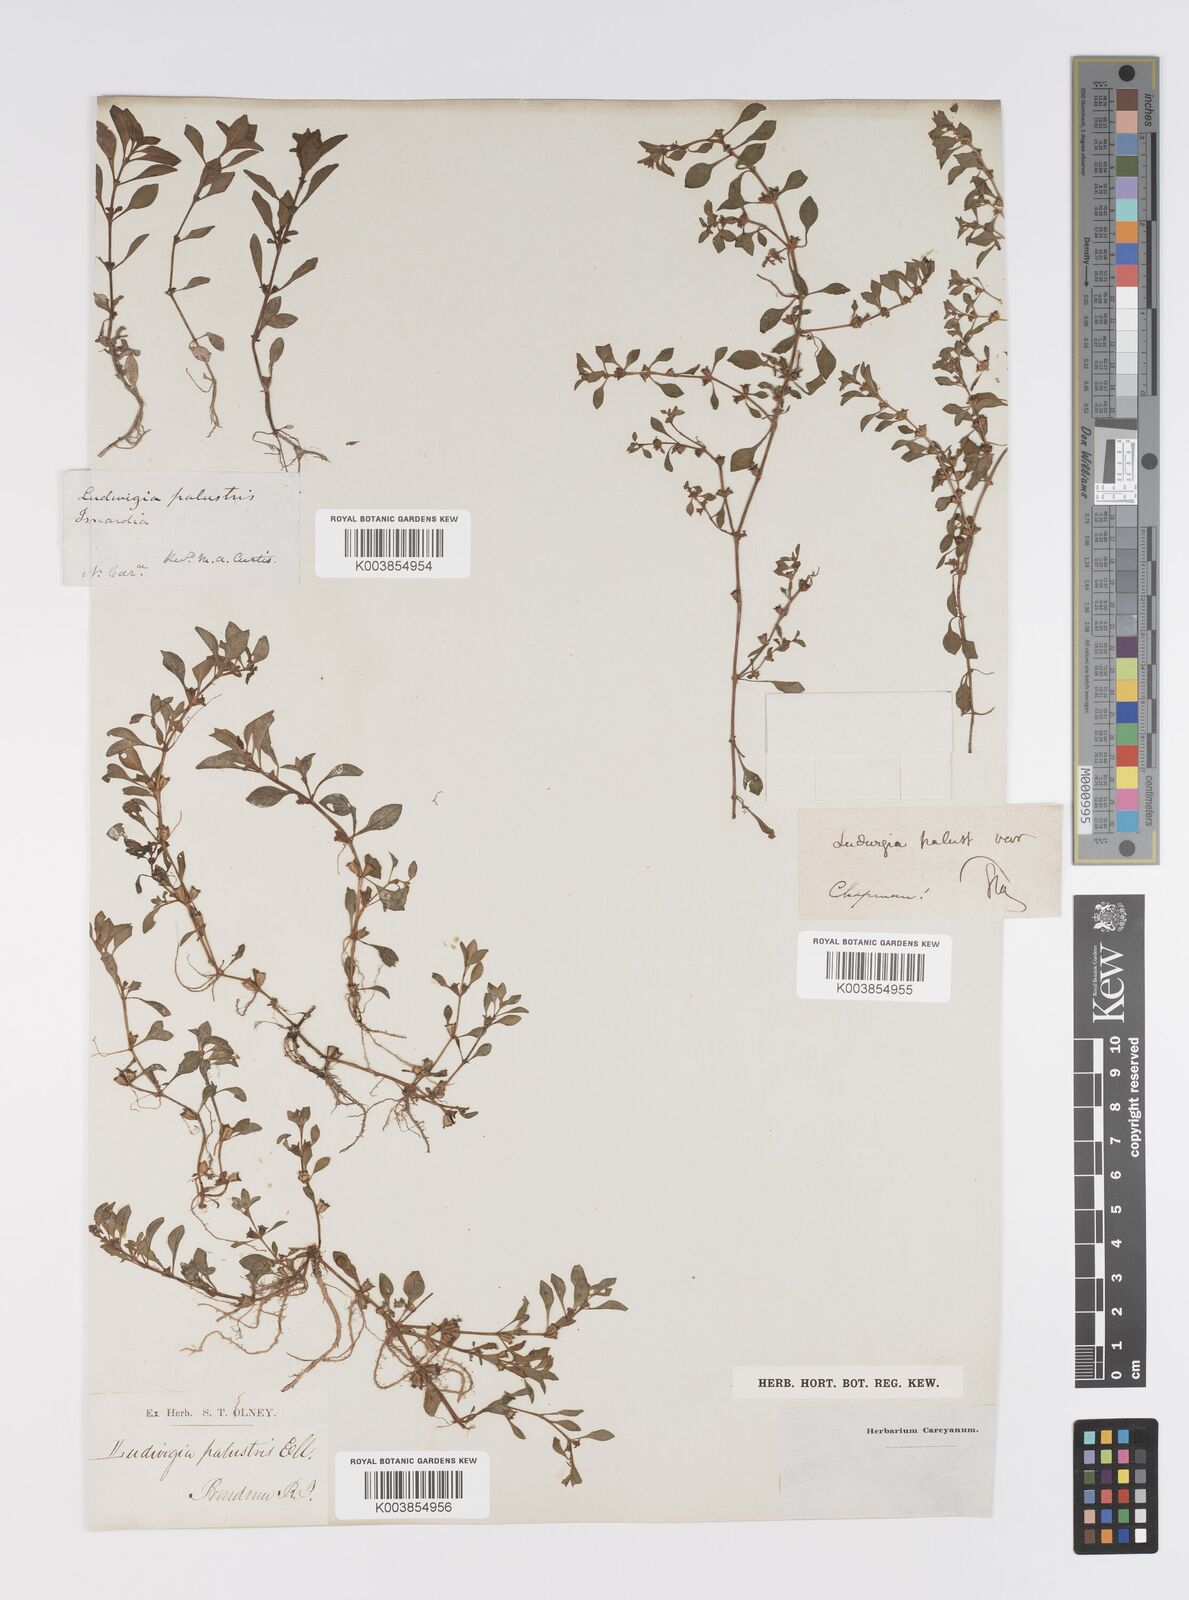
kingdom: Plantae
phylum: Tracheophyta
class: Magnoliopsida
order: Myrtales
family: Onagraceae
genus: Ludwigia
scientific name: Ludwigia palustris
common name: Hampshire-purslane
